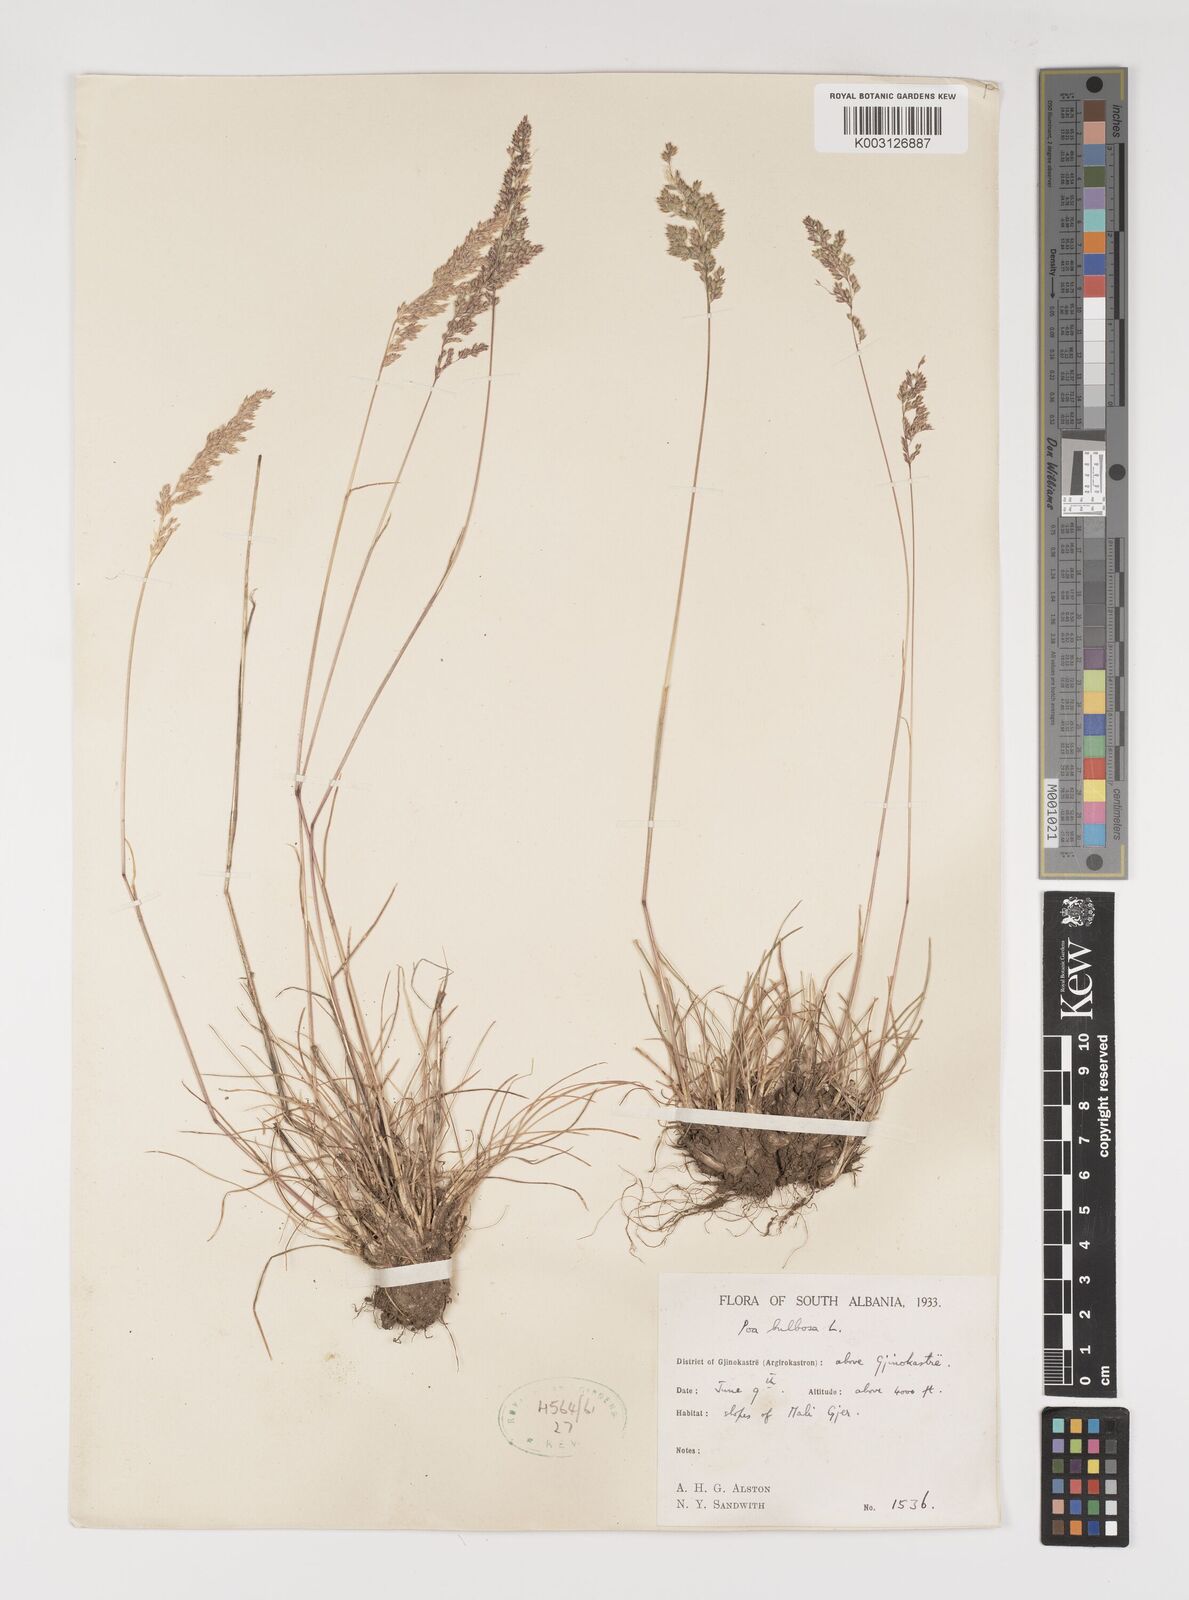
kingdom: Plantae
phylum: Tracheophyta
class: Liliopsida
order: Poales
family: Poaceae
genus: Poa
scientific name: Poa bulbosa
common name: Bulbous bluegrass
